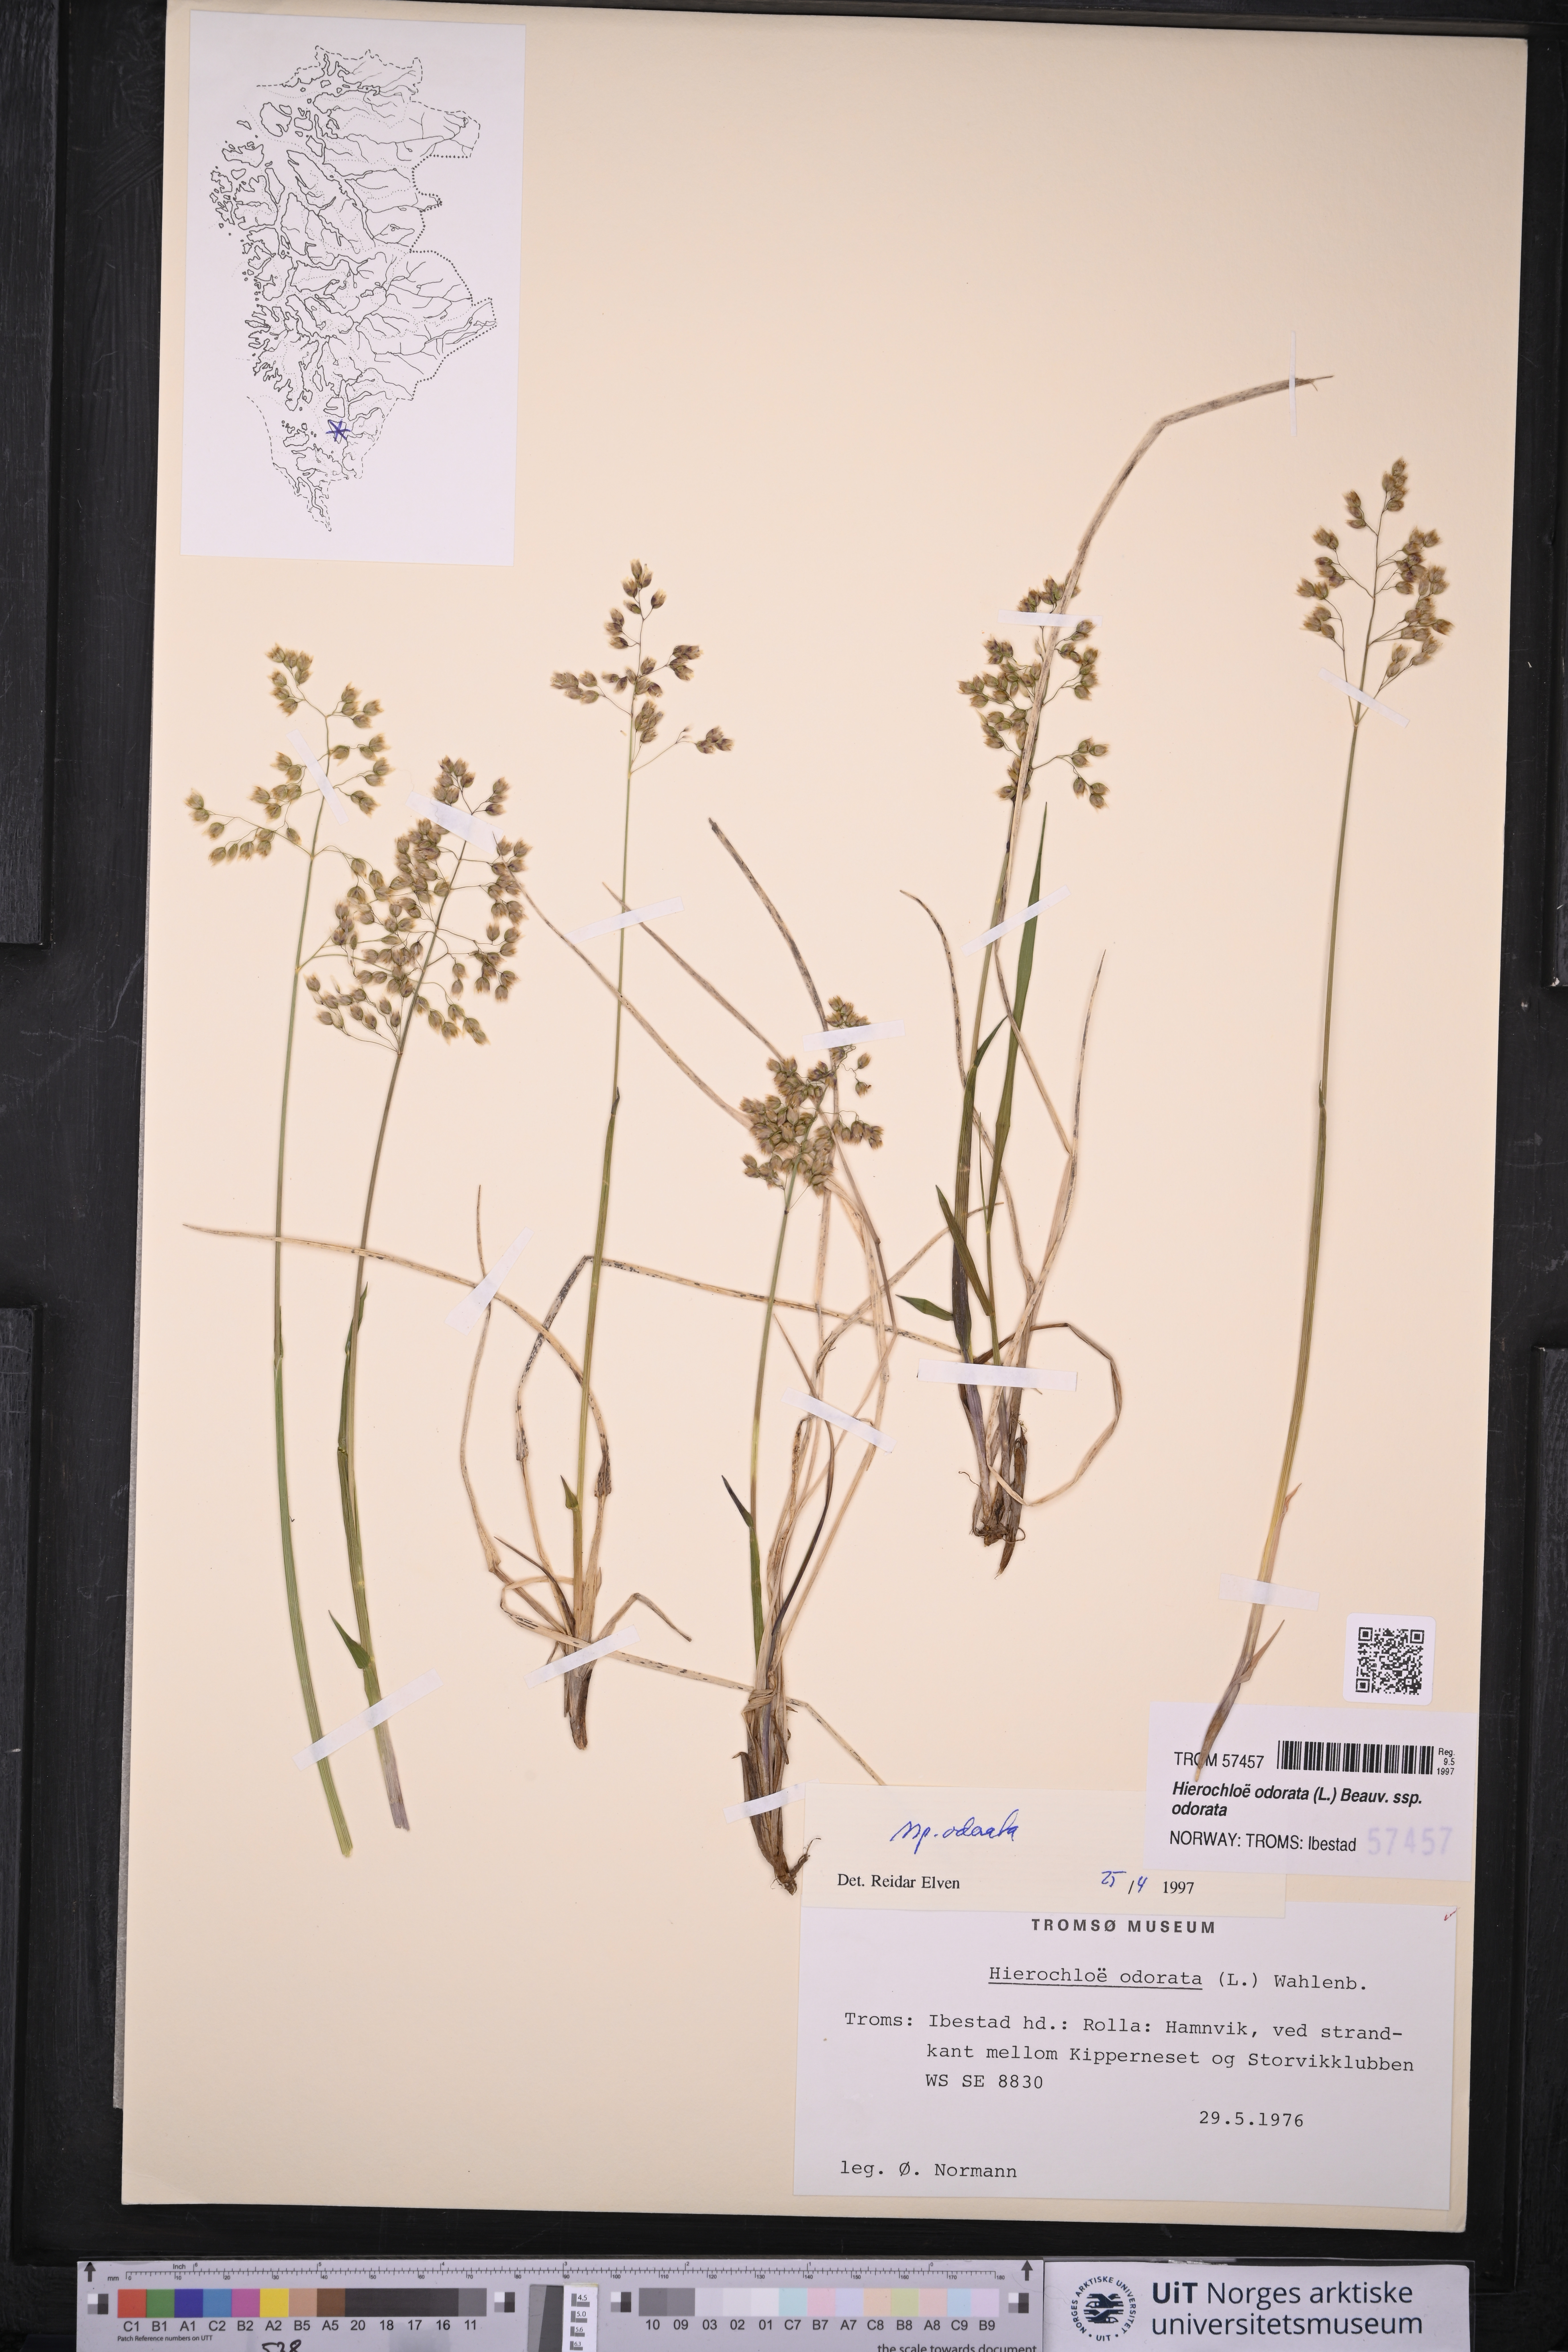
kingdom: Plantae
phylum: Tracheophyta
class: Liliopsida
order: Poales
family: Poaceae
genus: Anthoxanthum
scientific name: Anthoxanthum nitens
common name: Holy grass
